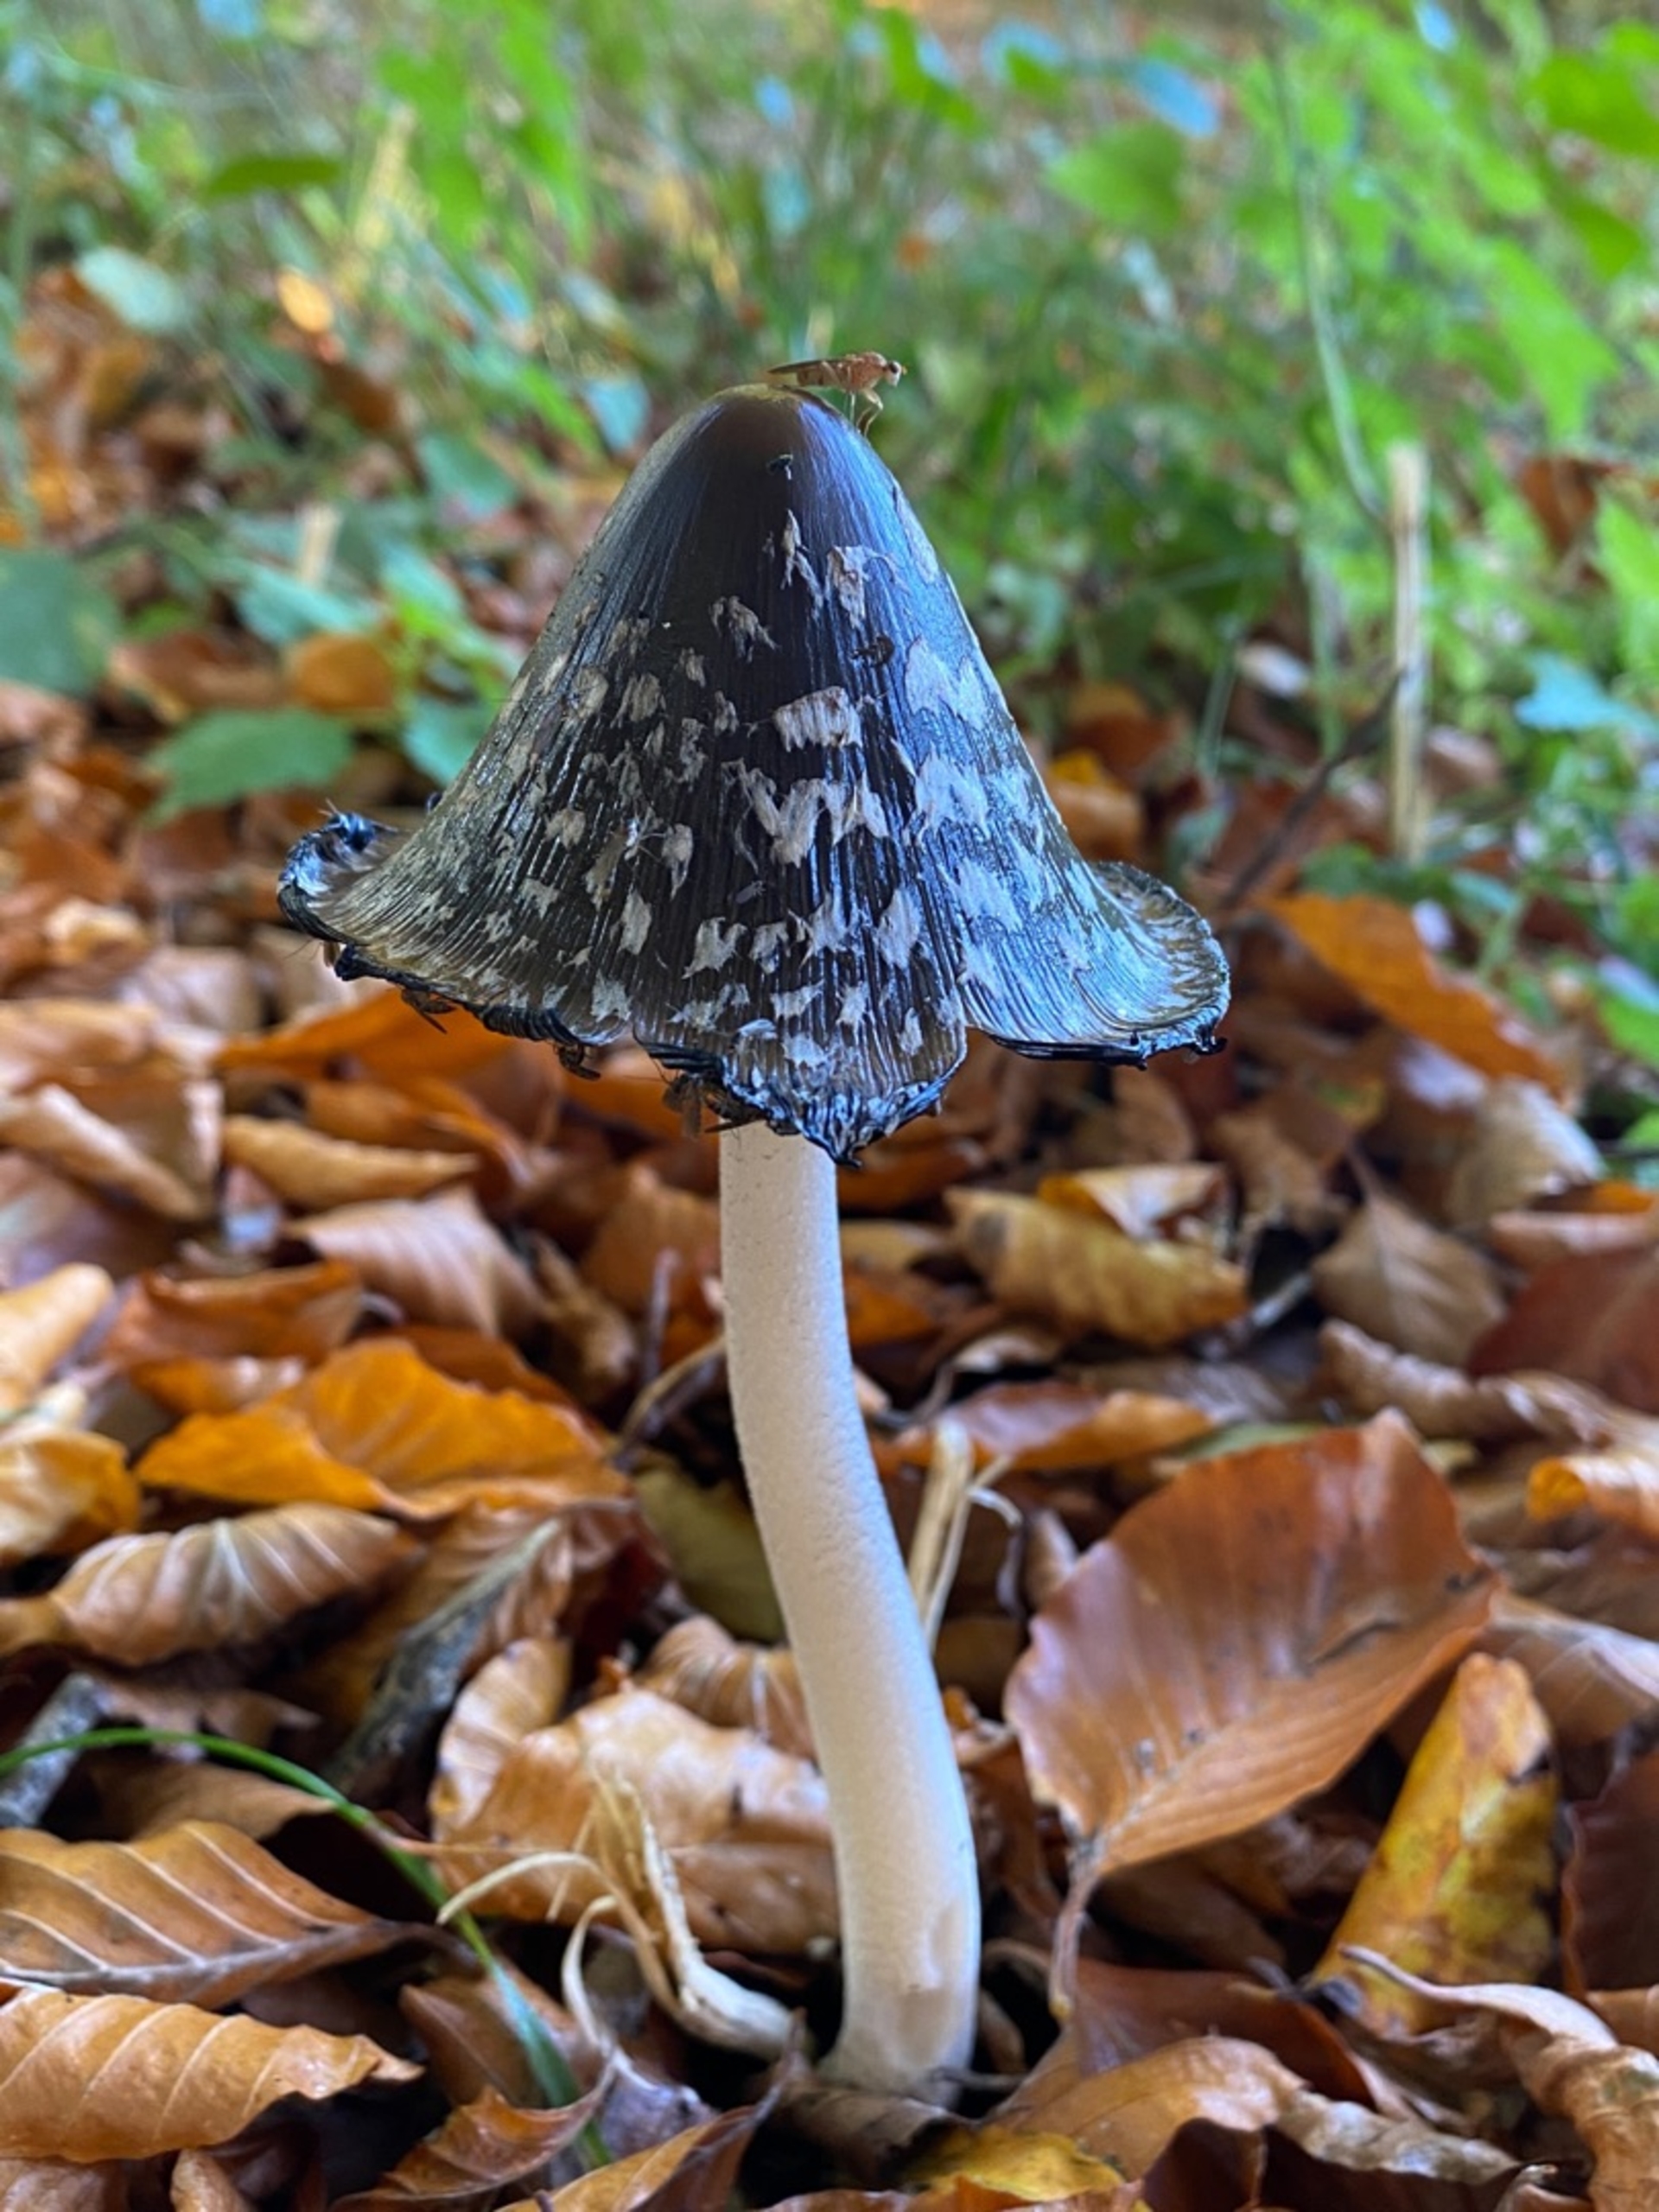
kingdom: Fungi
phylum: Basidiomycota
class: Agaricomycetes
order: Agaricales
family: Psathyrellaceae
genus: Coprinopsis
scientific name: Coprinopsis picacea
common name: Skade-blækhat
